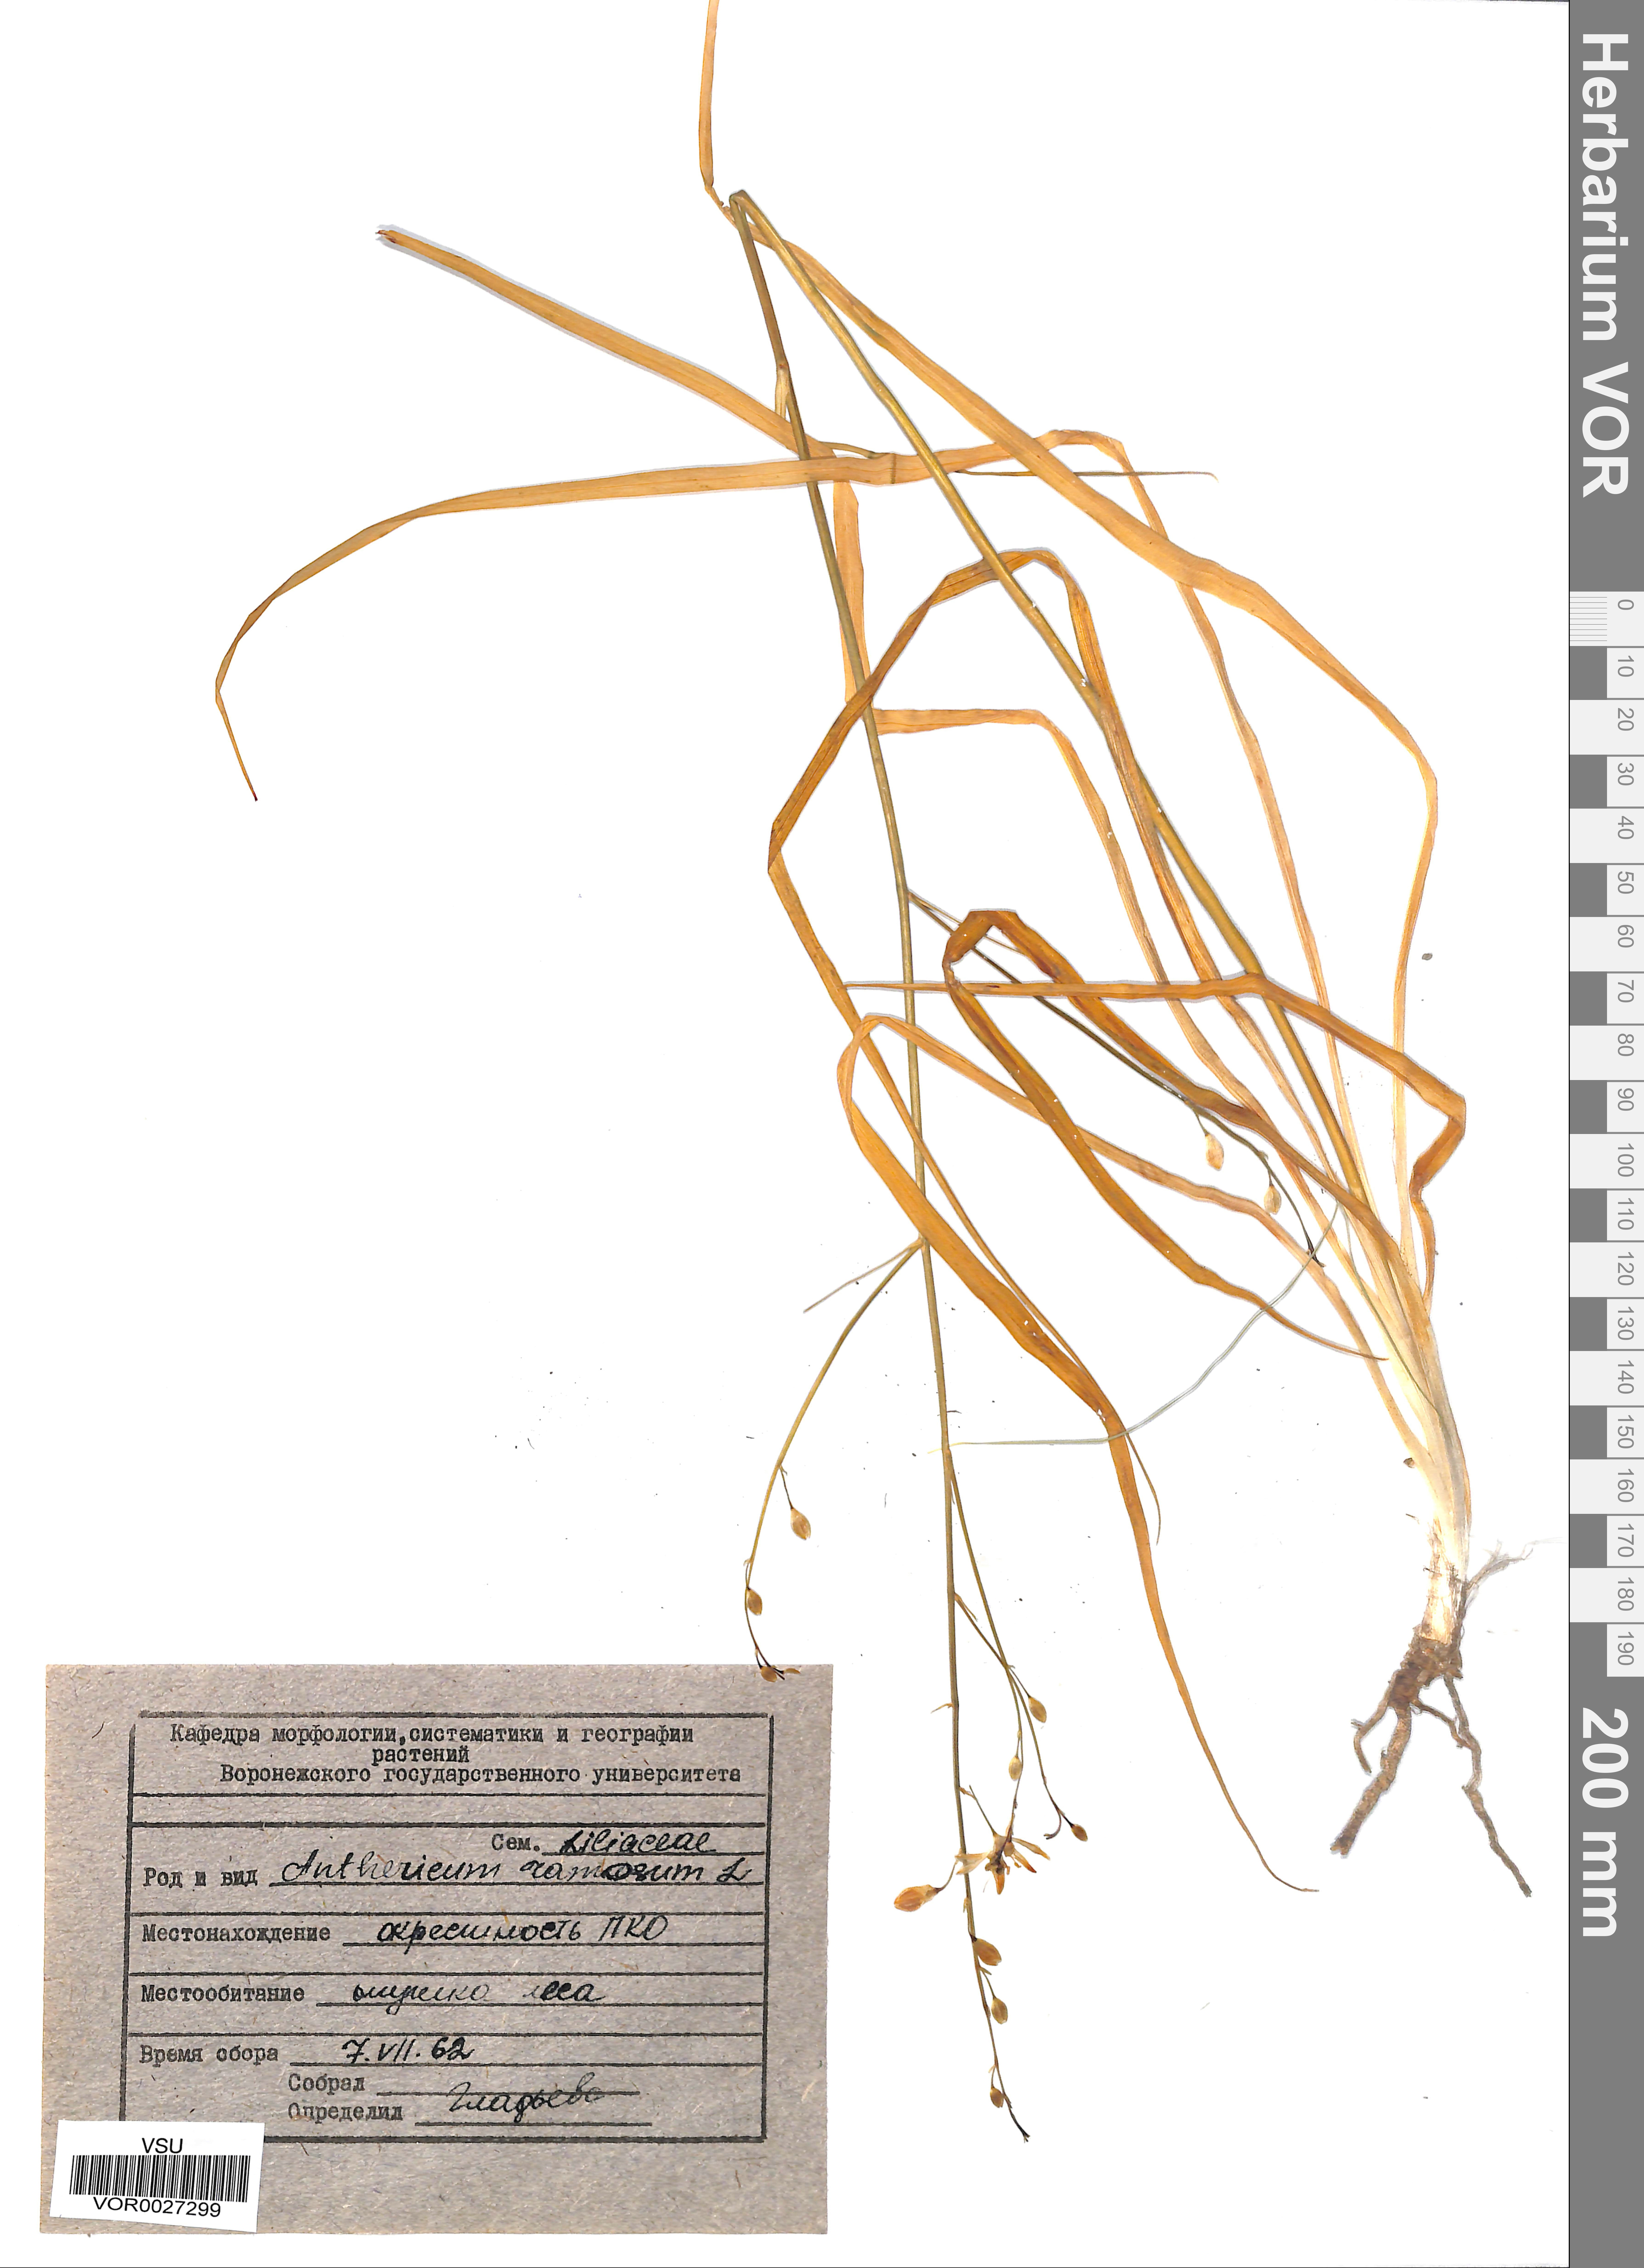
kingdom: Plantae
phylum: Tracheophyta
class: Liliopsida
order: Asparagales
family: Asparagaceae
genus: Anthericum
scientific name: Anthericum ramosum
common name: Branched st. bernard's-lily
